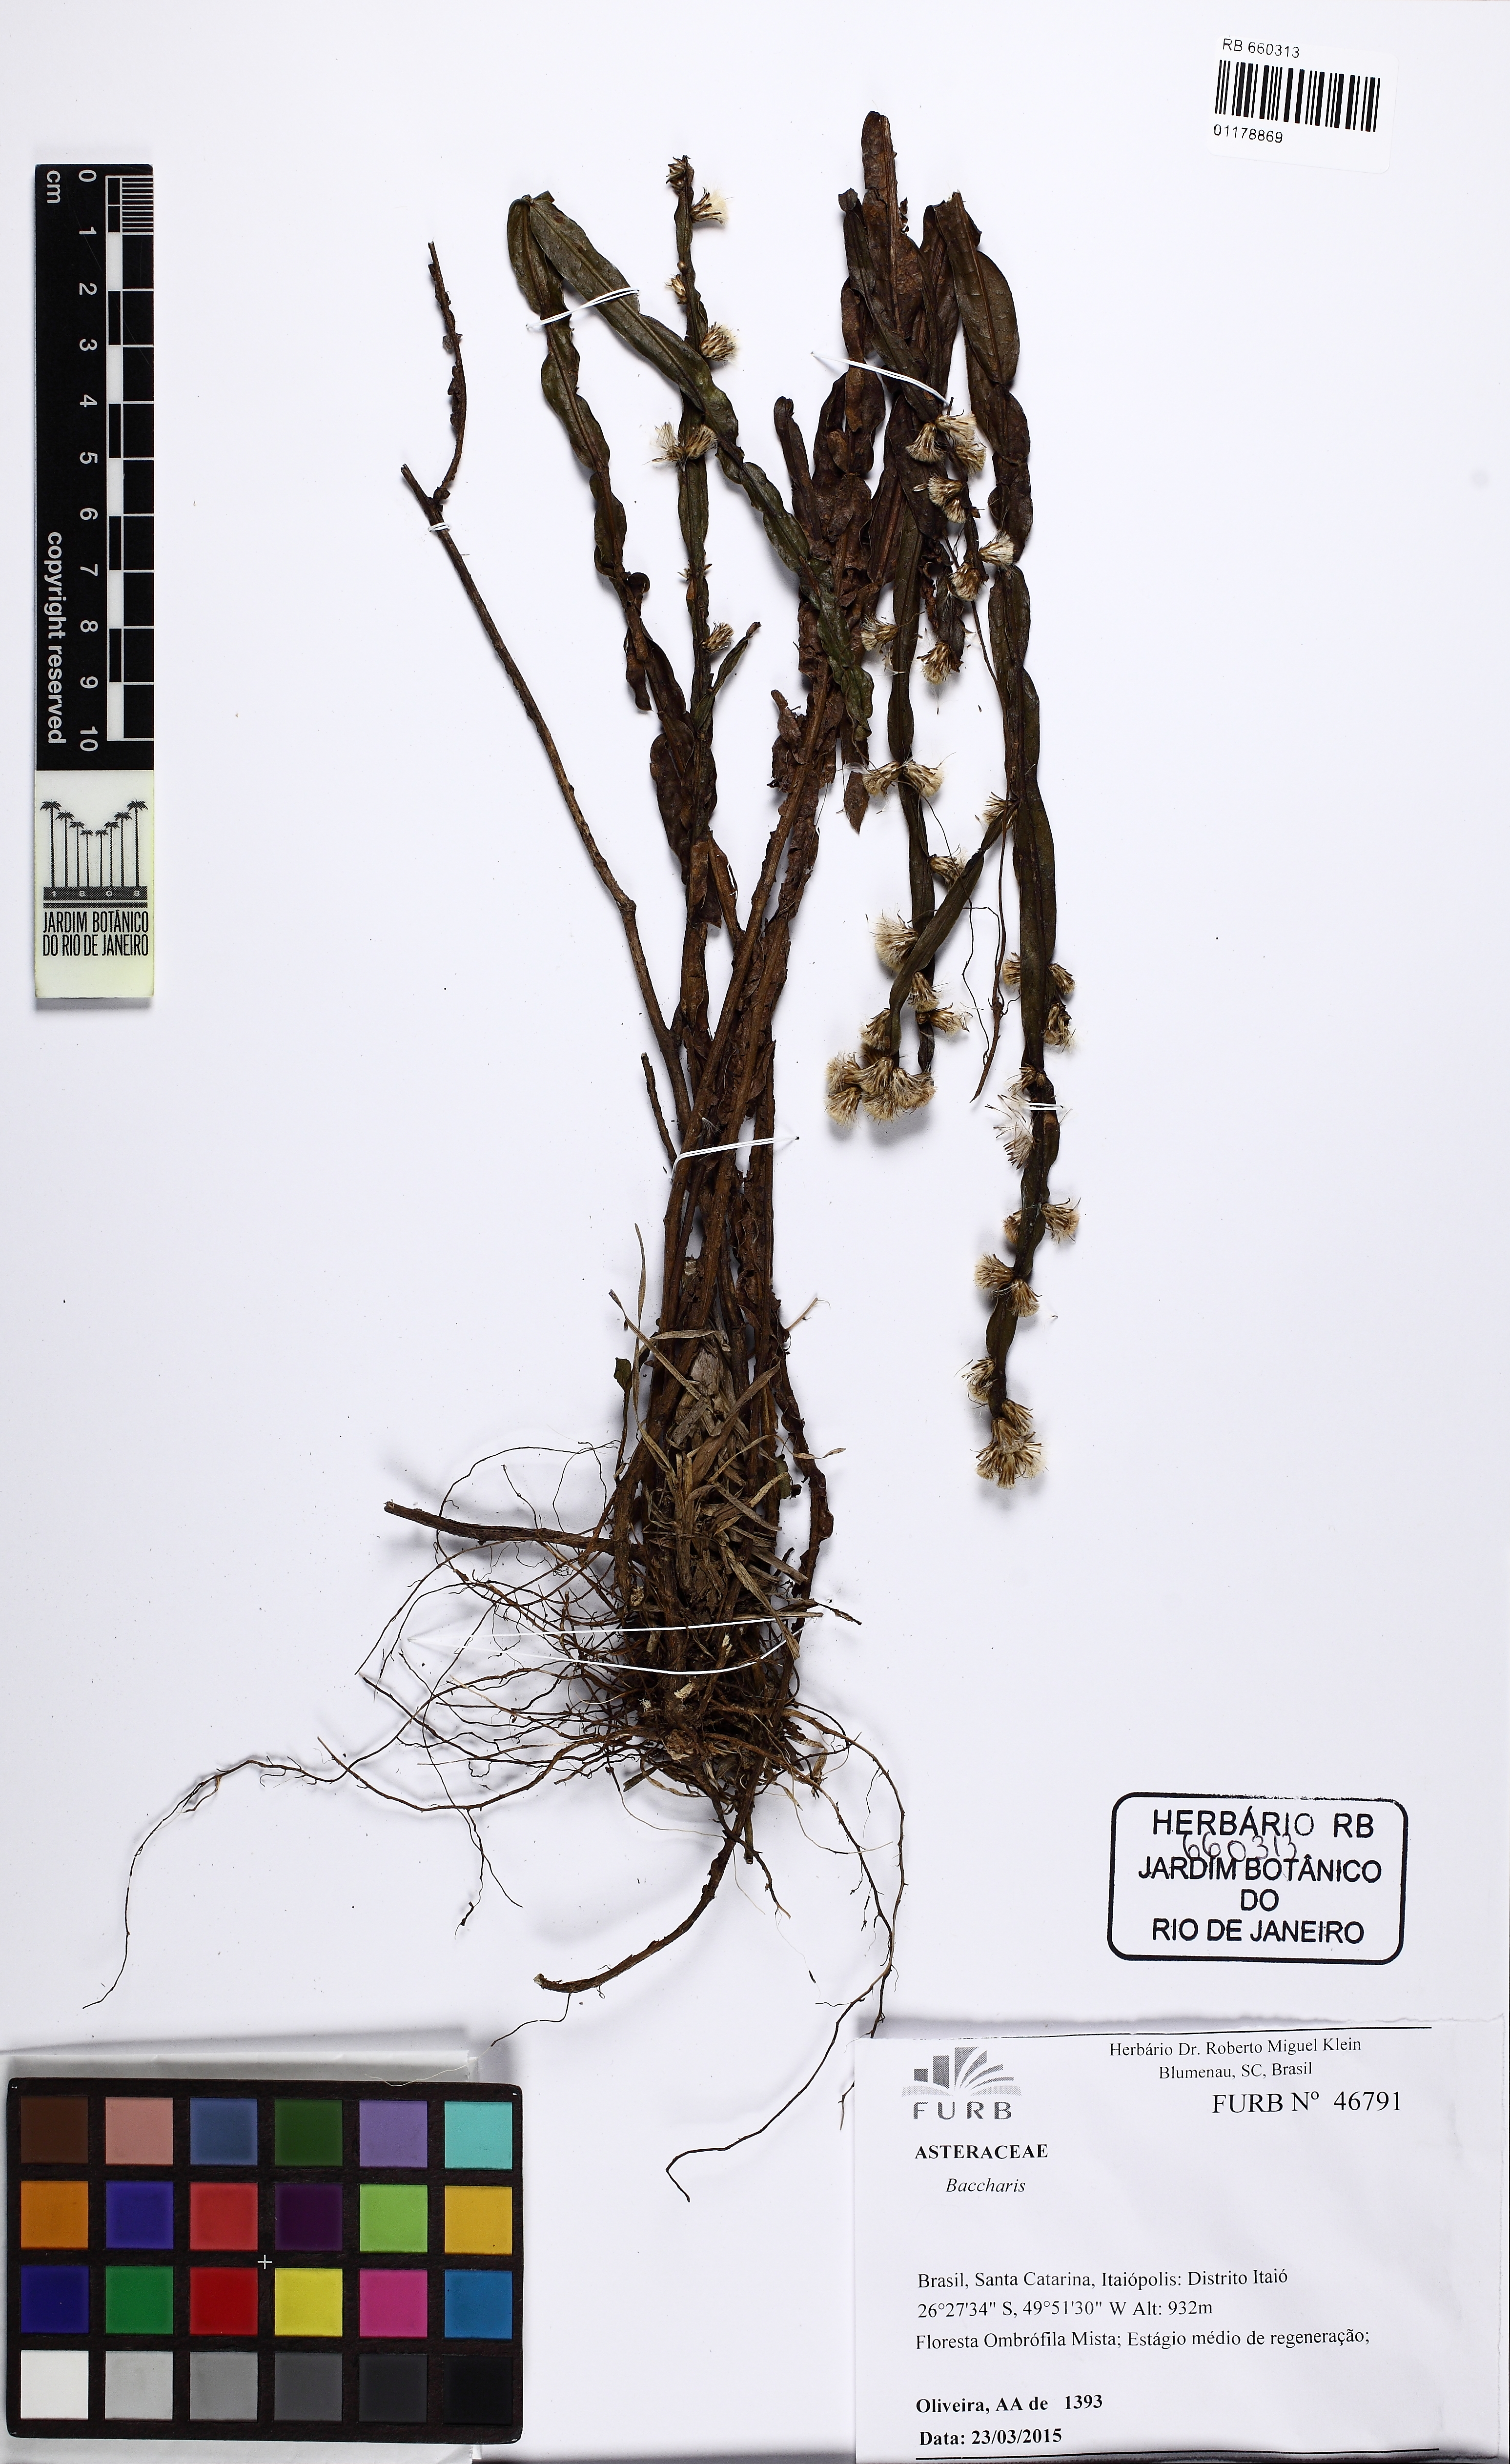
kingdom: Plantae
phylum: Tracheophyta
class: Magnoliopsida
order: Asterales
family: Asteraceae
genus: Baccharis
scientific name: Baccharis crispa
